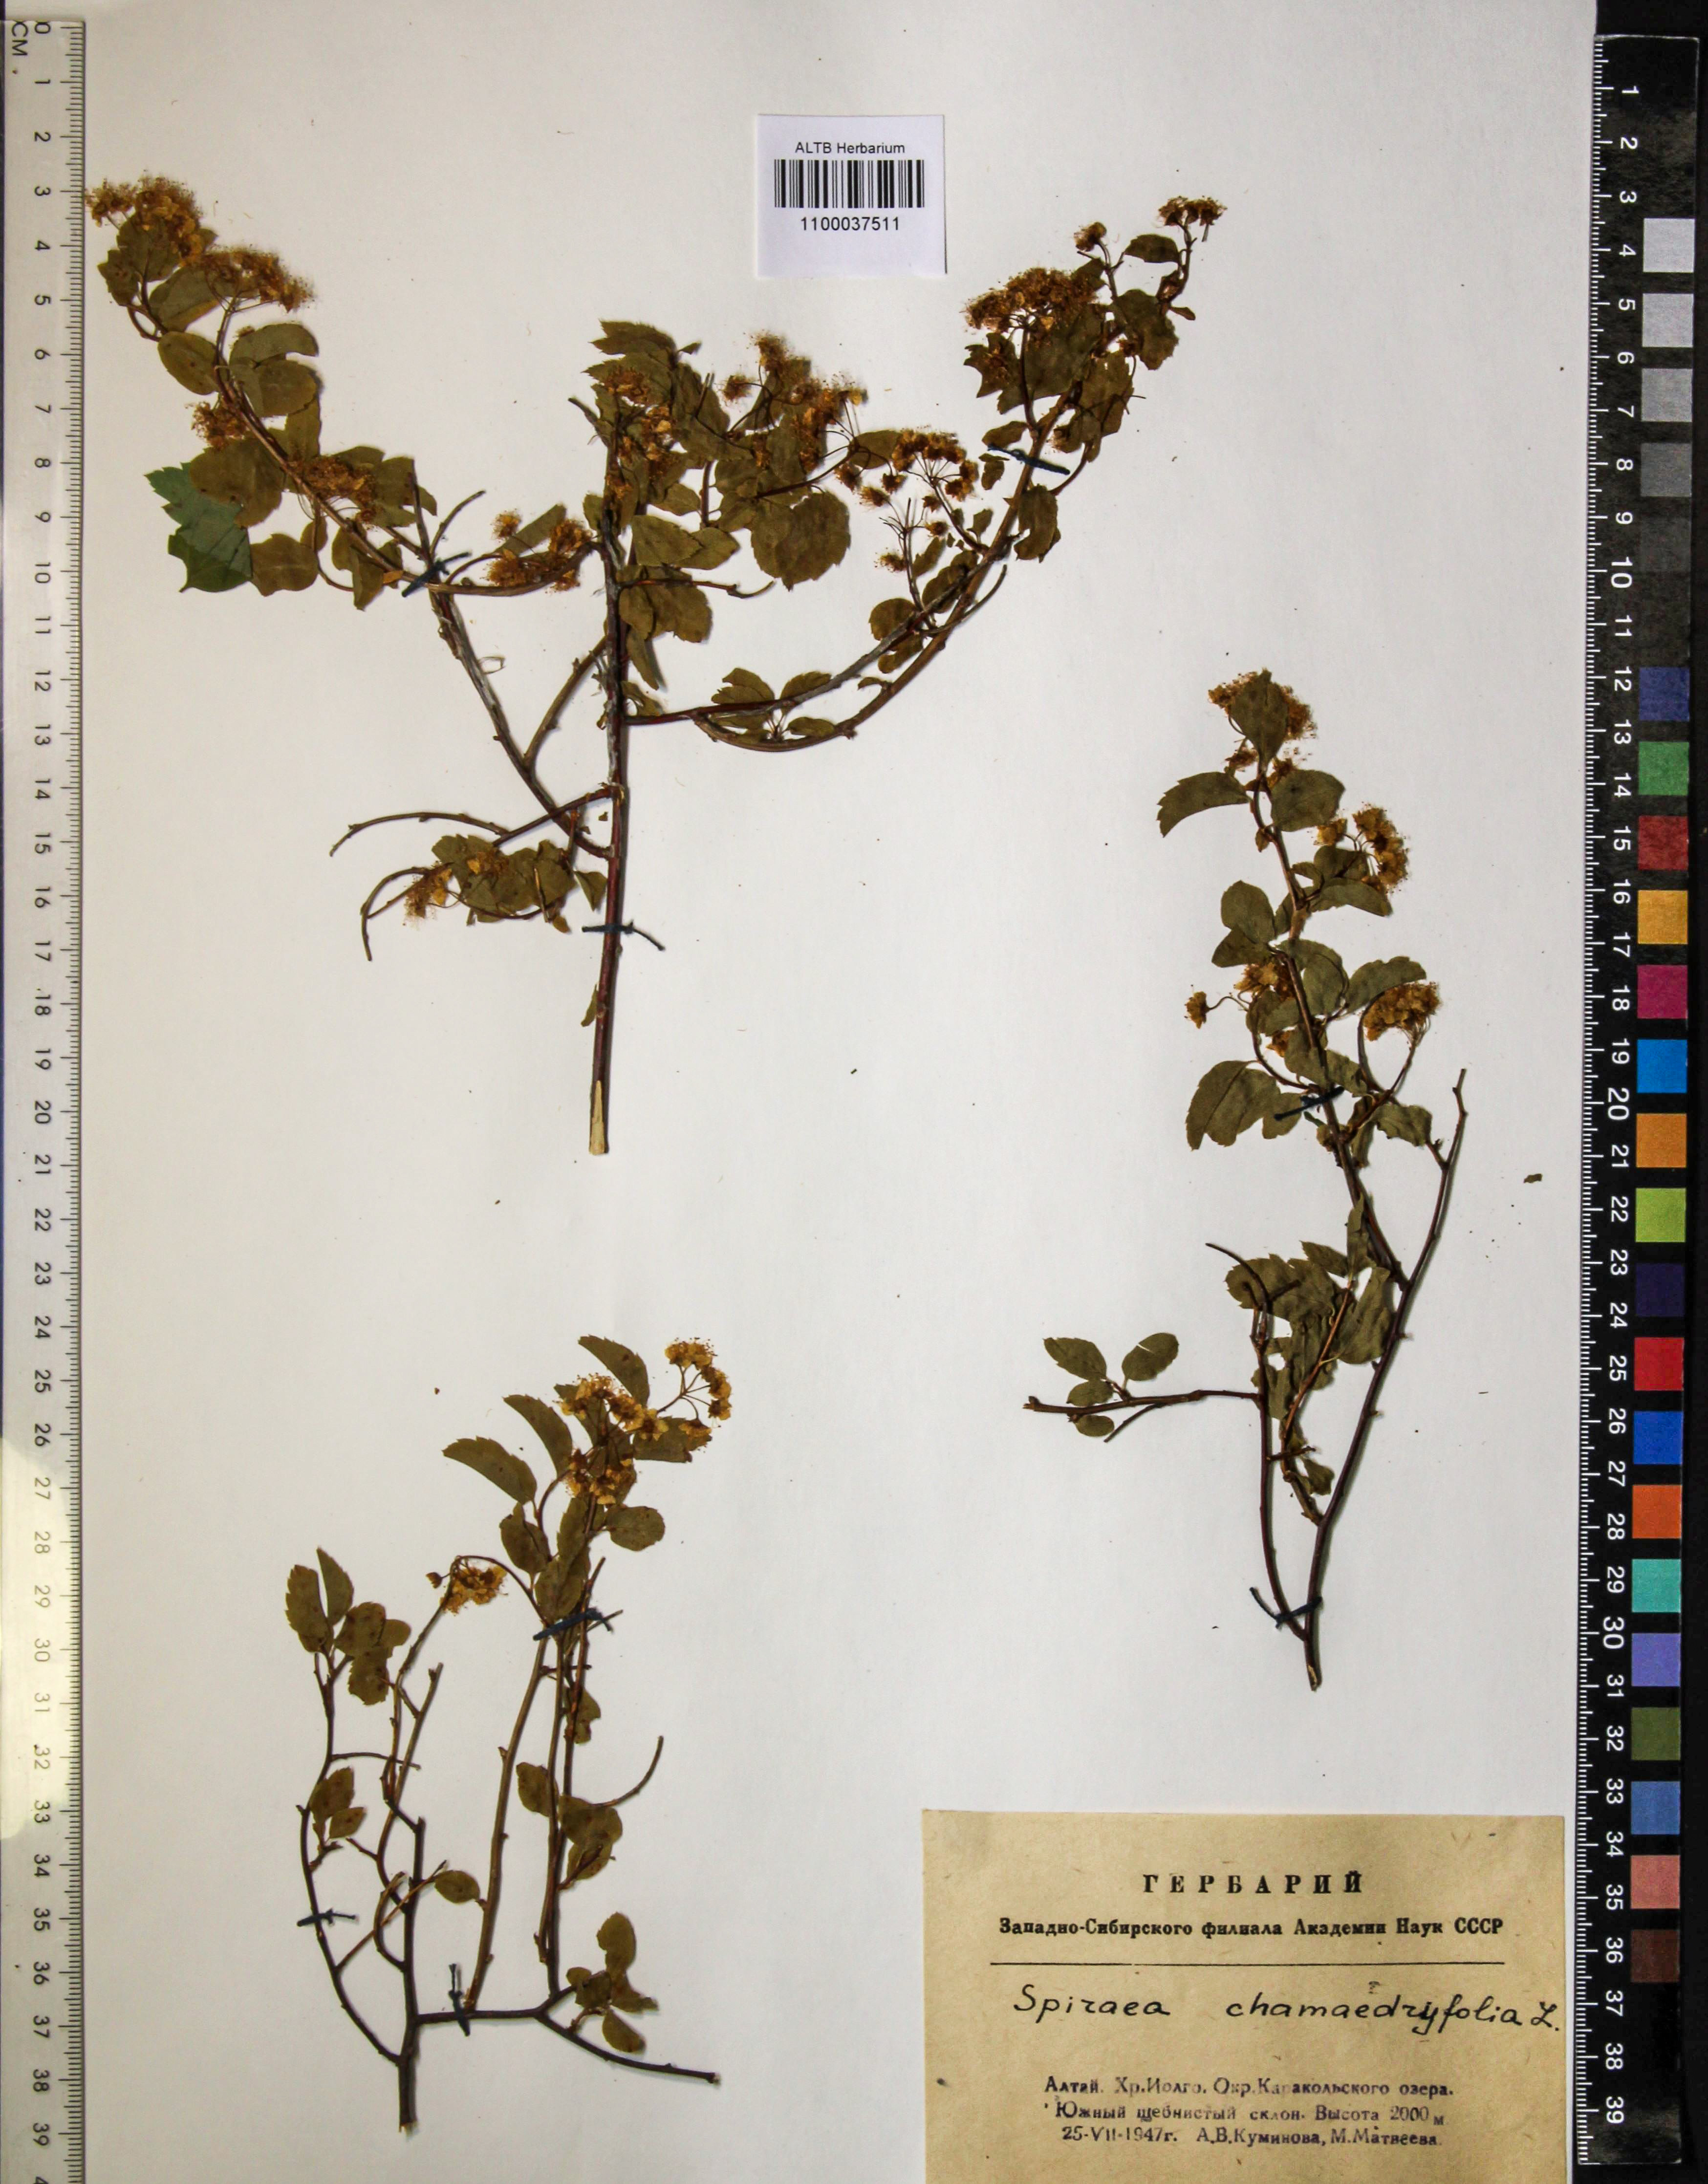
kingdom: Plantae
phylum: Tracheophyta
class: Magnoliopsida
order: Rosales
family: Rosaceae
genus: Spiraea
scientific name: Spiraea chamaedryfolia
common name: Elm-leaved spiraea
